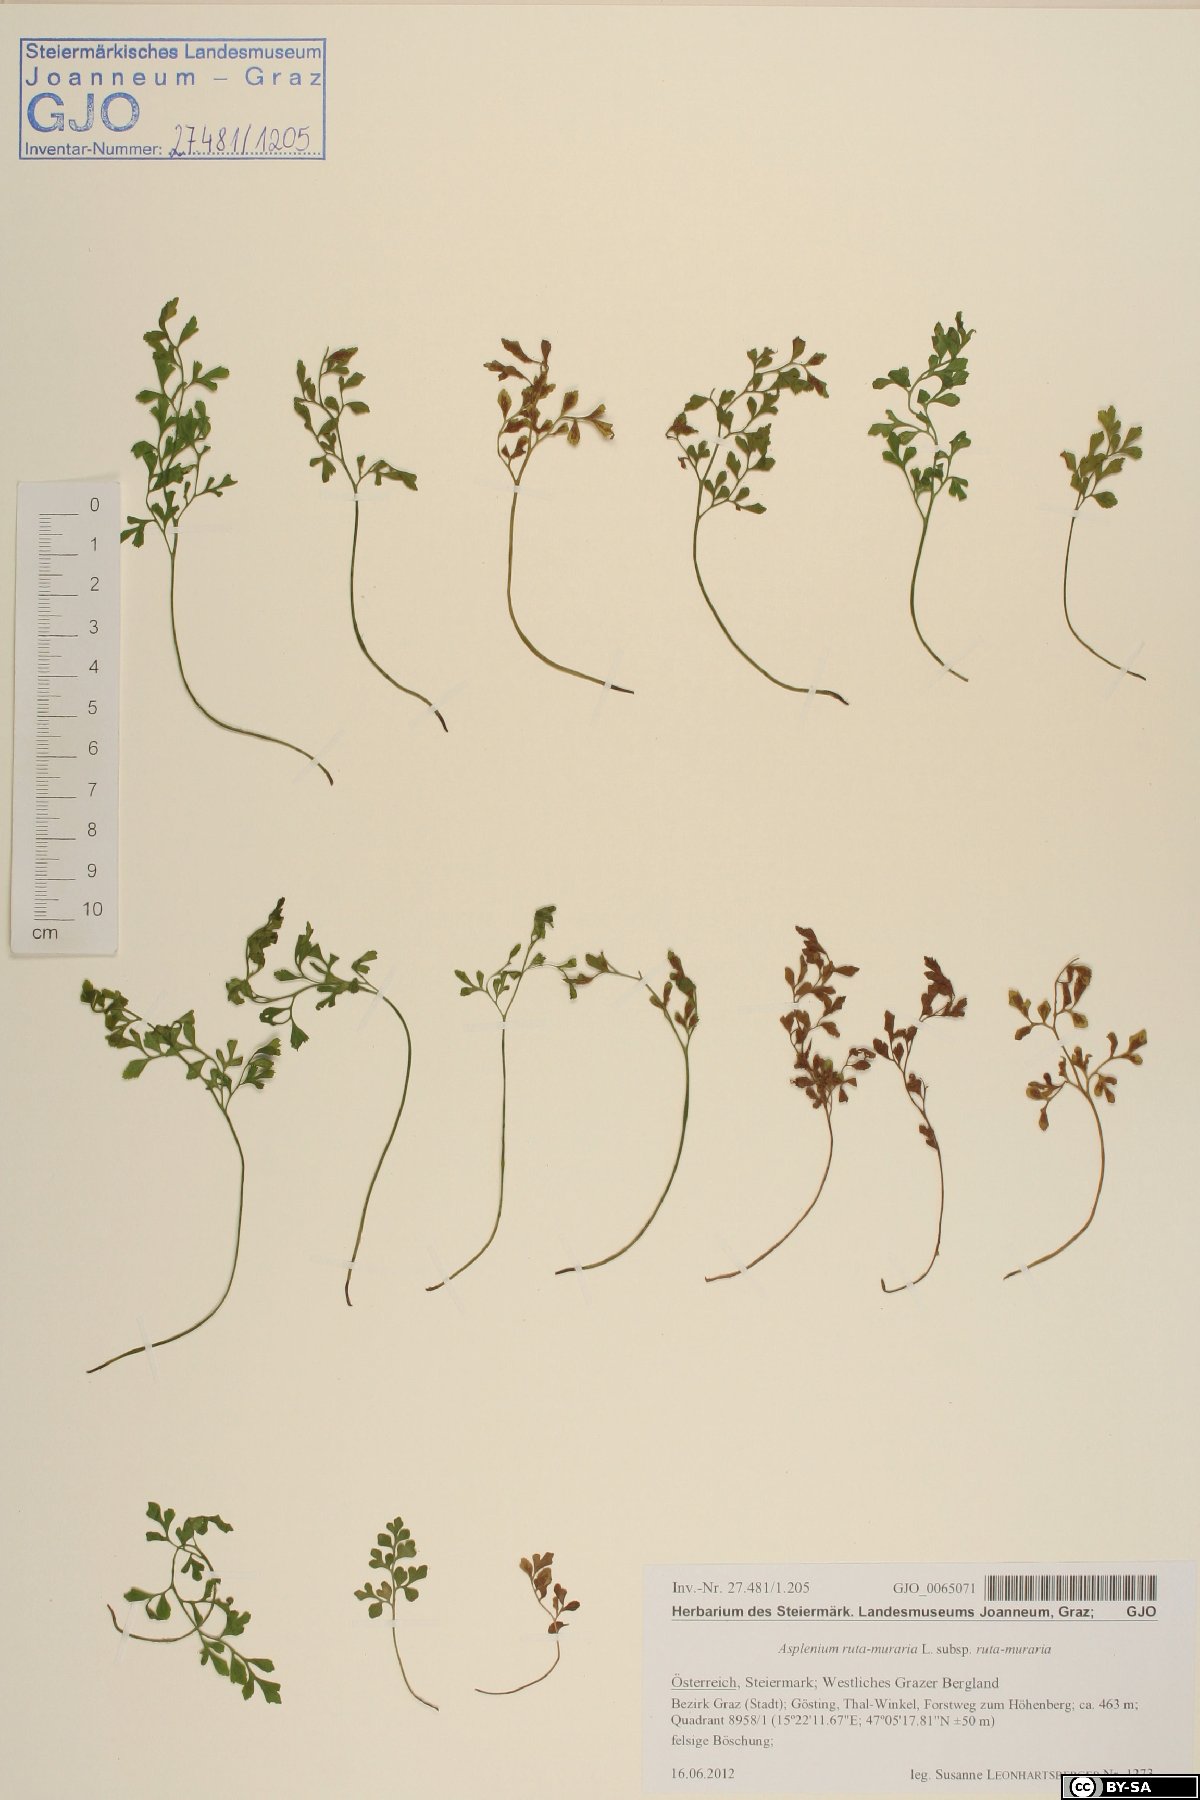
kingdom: Plantae
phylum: Tracheophyta
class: Polypodiopsida
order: Polypodiales
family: Aspleniaceae
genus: Asplenium
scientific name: Asplenium ruta-muraria
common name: Wall-rue
